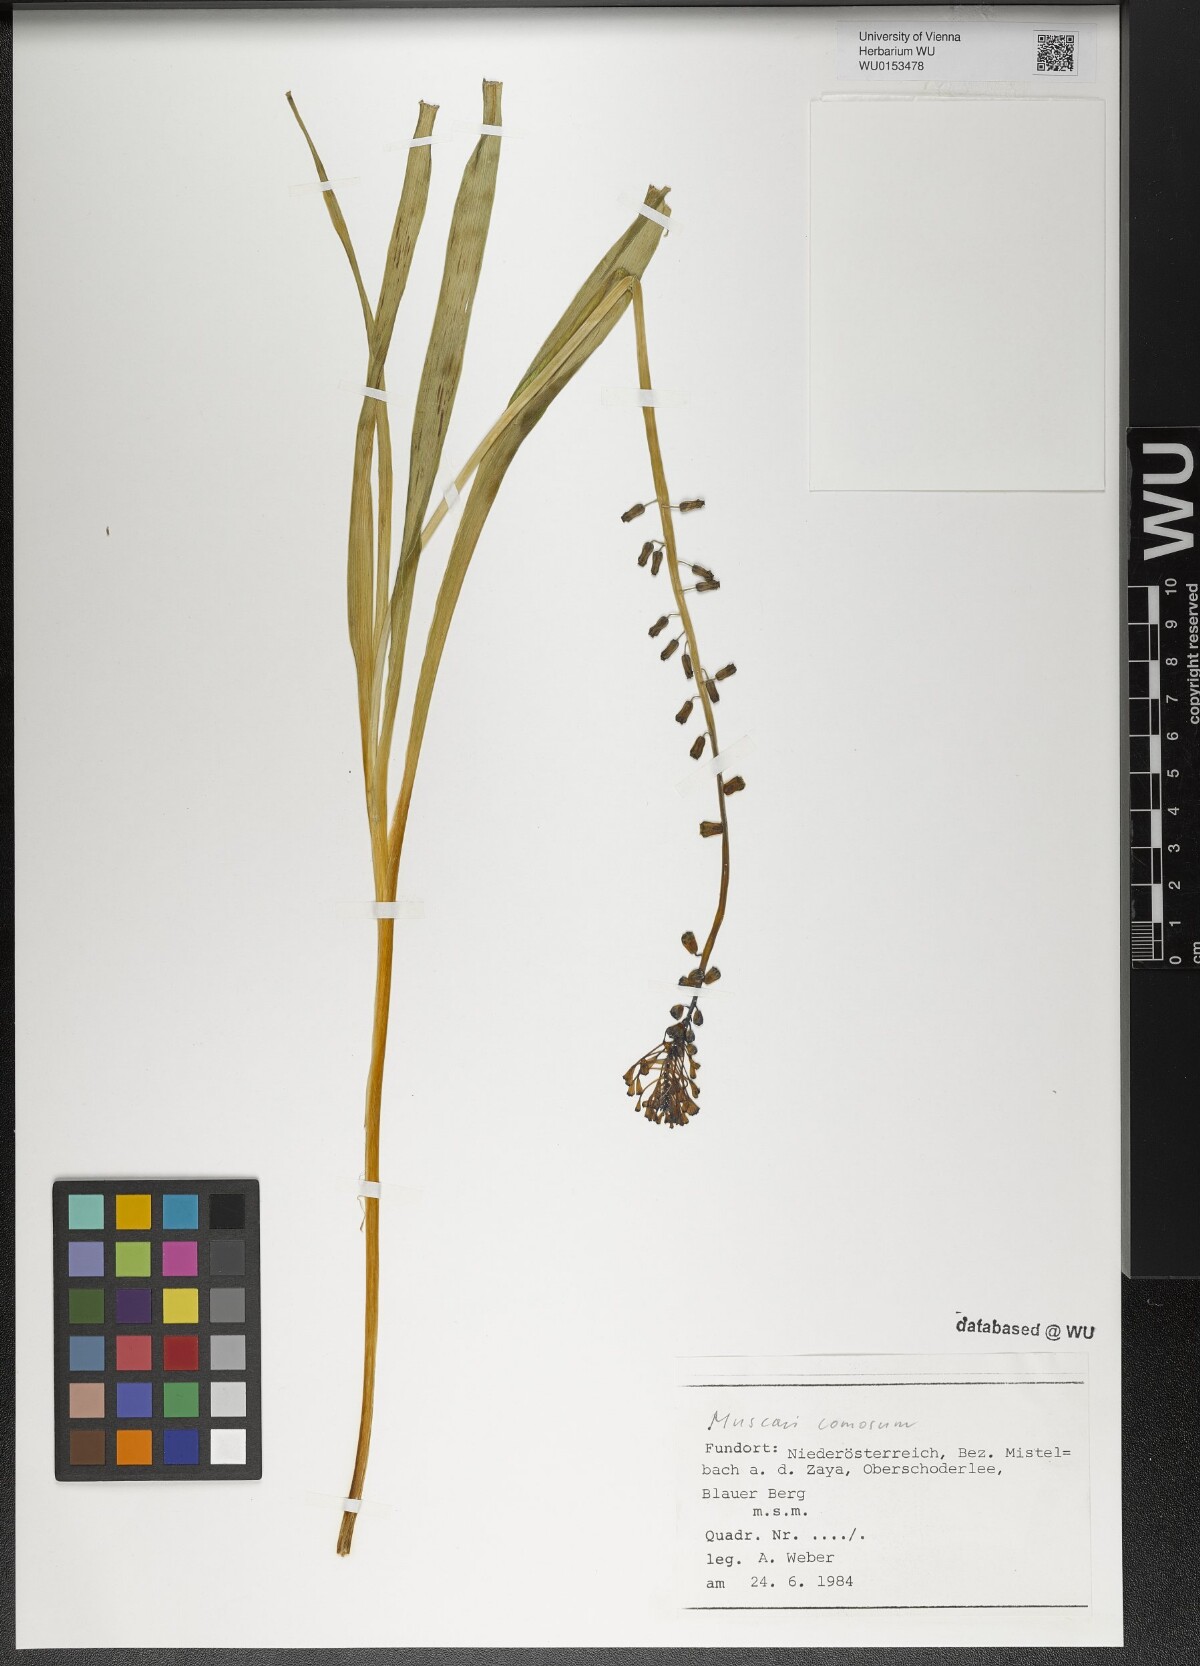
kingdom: Plantae
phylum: Tracheophyta
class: Liliopsida
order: Asparagales
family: Asparagaceae
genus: Muscari
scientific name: Muscari comosum
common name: Tassel hyacinth
